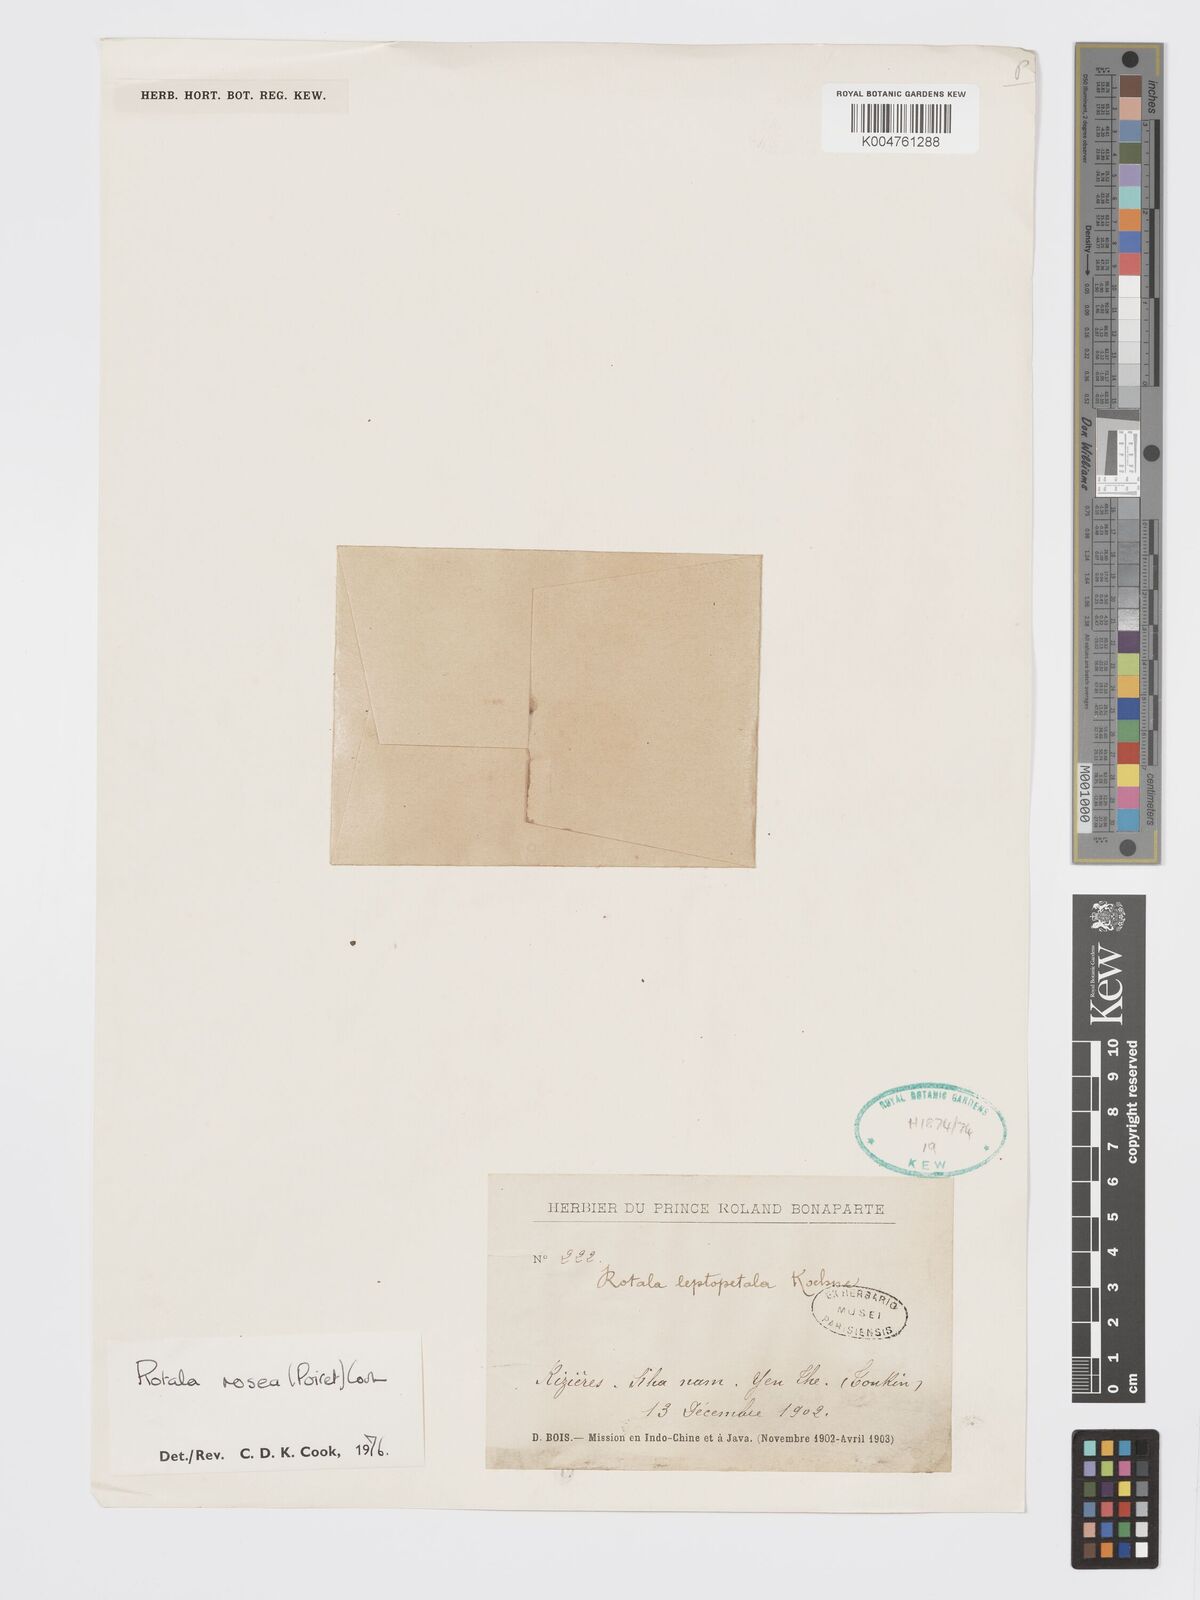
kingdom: Plantae
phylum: Tracheophyta
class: Magnoliopsida
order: Myrtales
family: Lythraceae
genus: Rotala
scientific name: Rotala rosea
